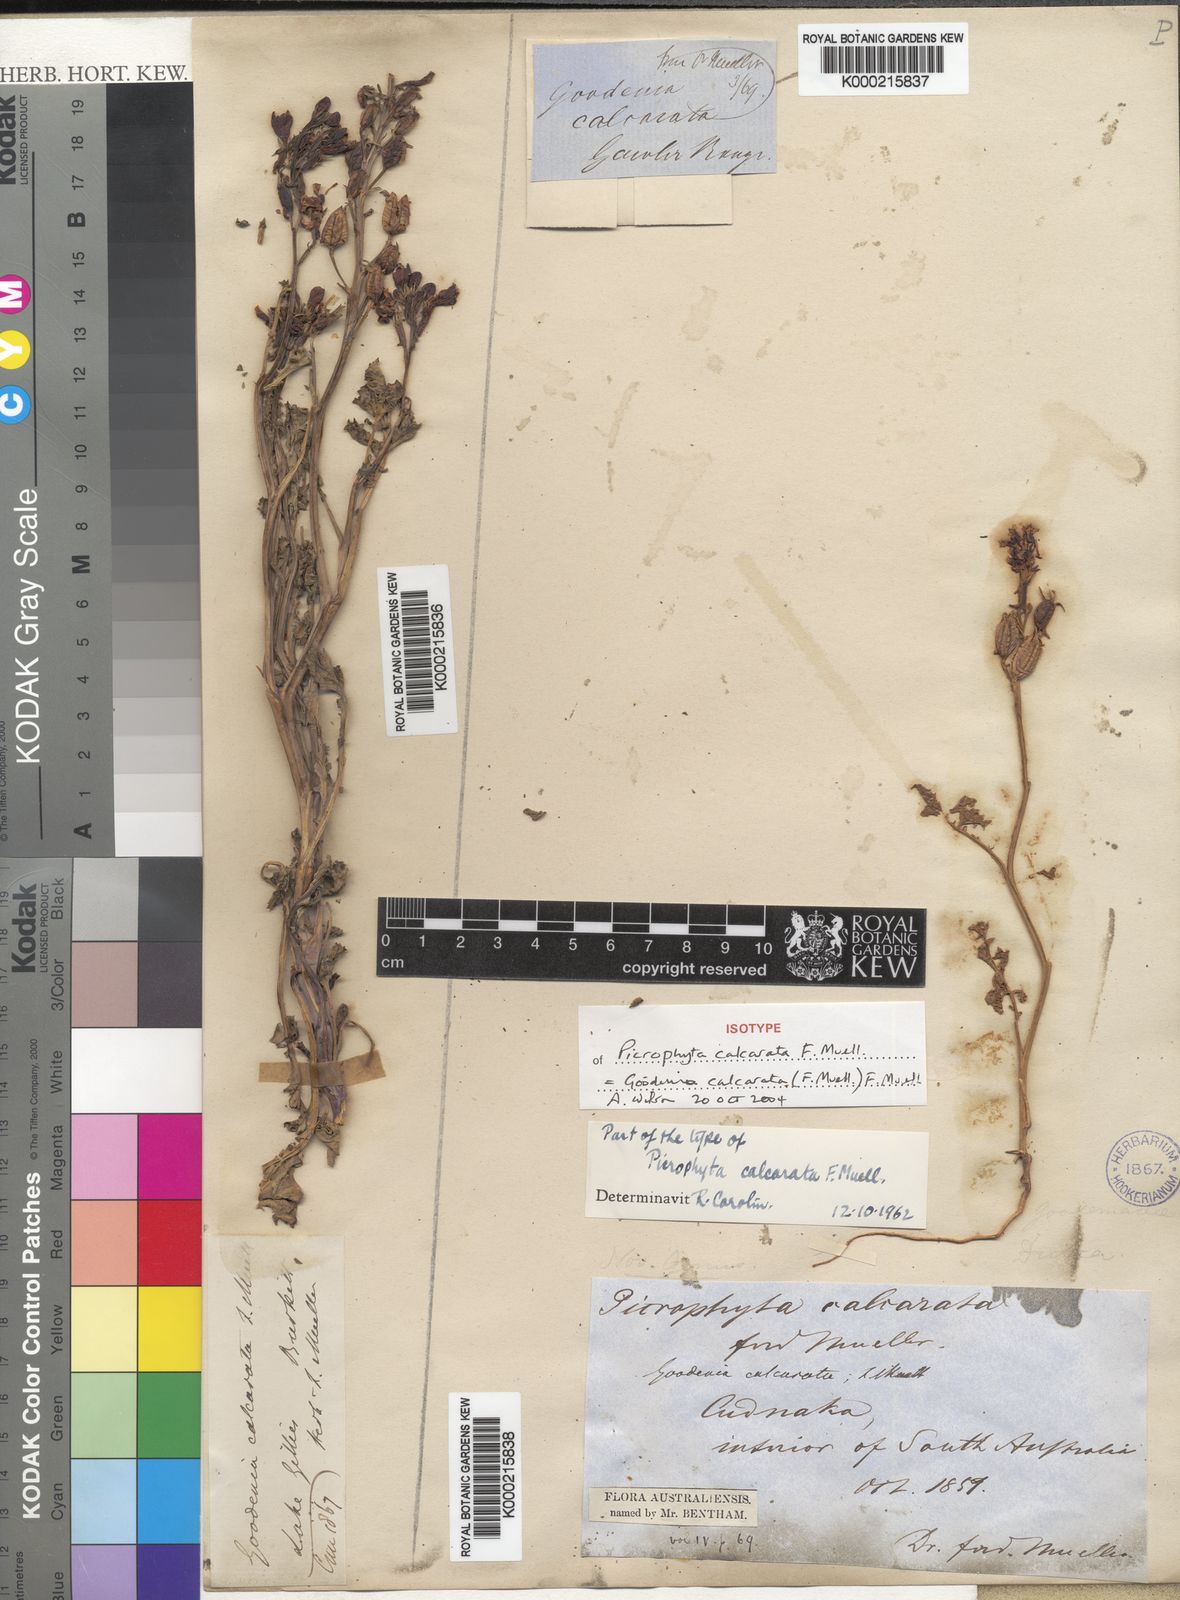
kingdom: Plantae
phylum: Tracheophyta
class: Magnoliopsida
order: Asterales
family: Goodeniaceae
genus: Goodenia
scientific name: Goodenia calcarata
